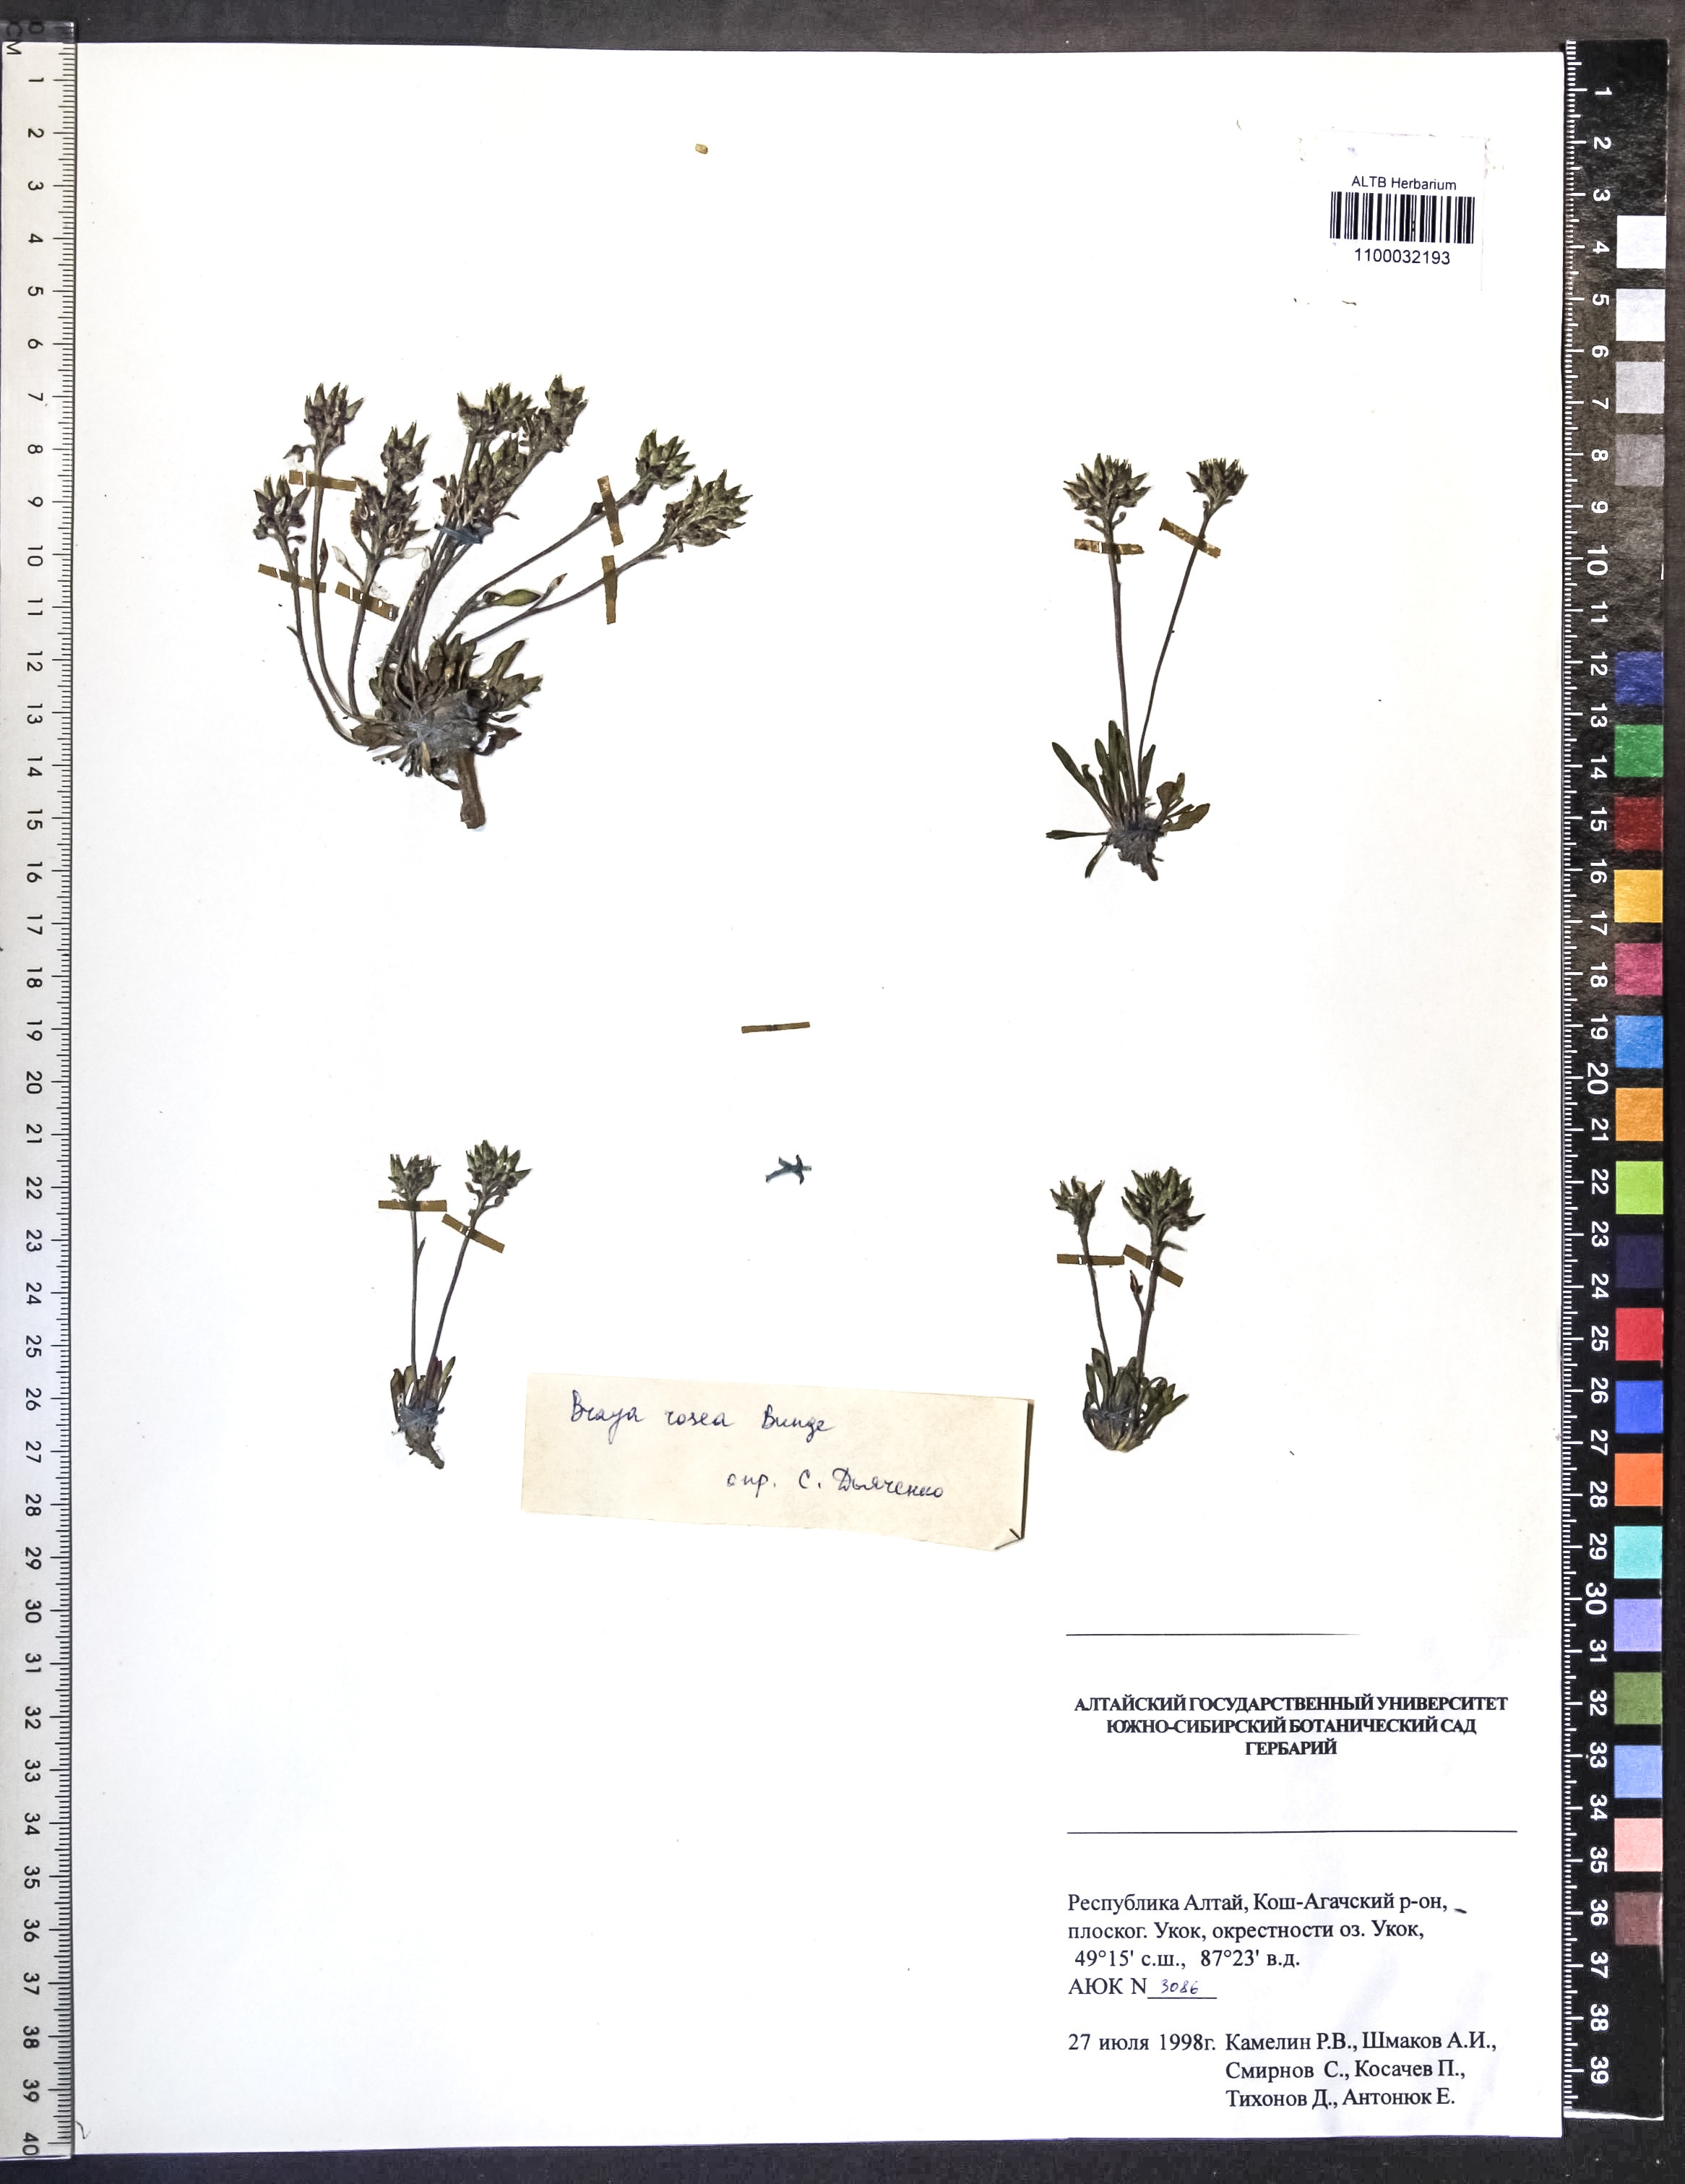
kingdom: Plantae
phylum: Tracheophyta
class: Magnoliopsida
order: Brassicales
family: Brassicaceae
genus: Braya
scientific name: Braya rosea
